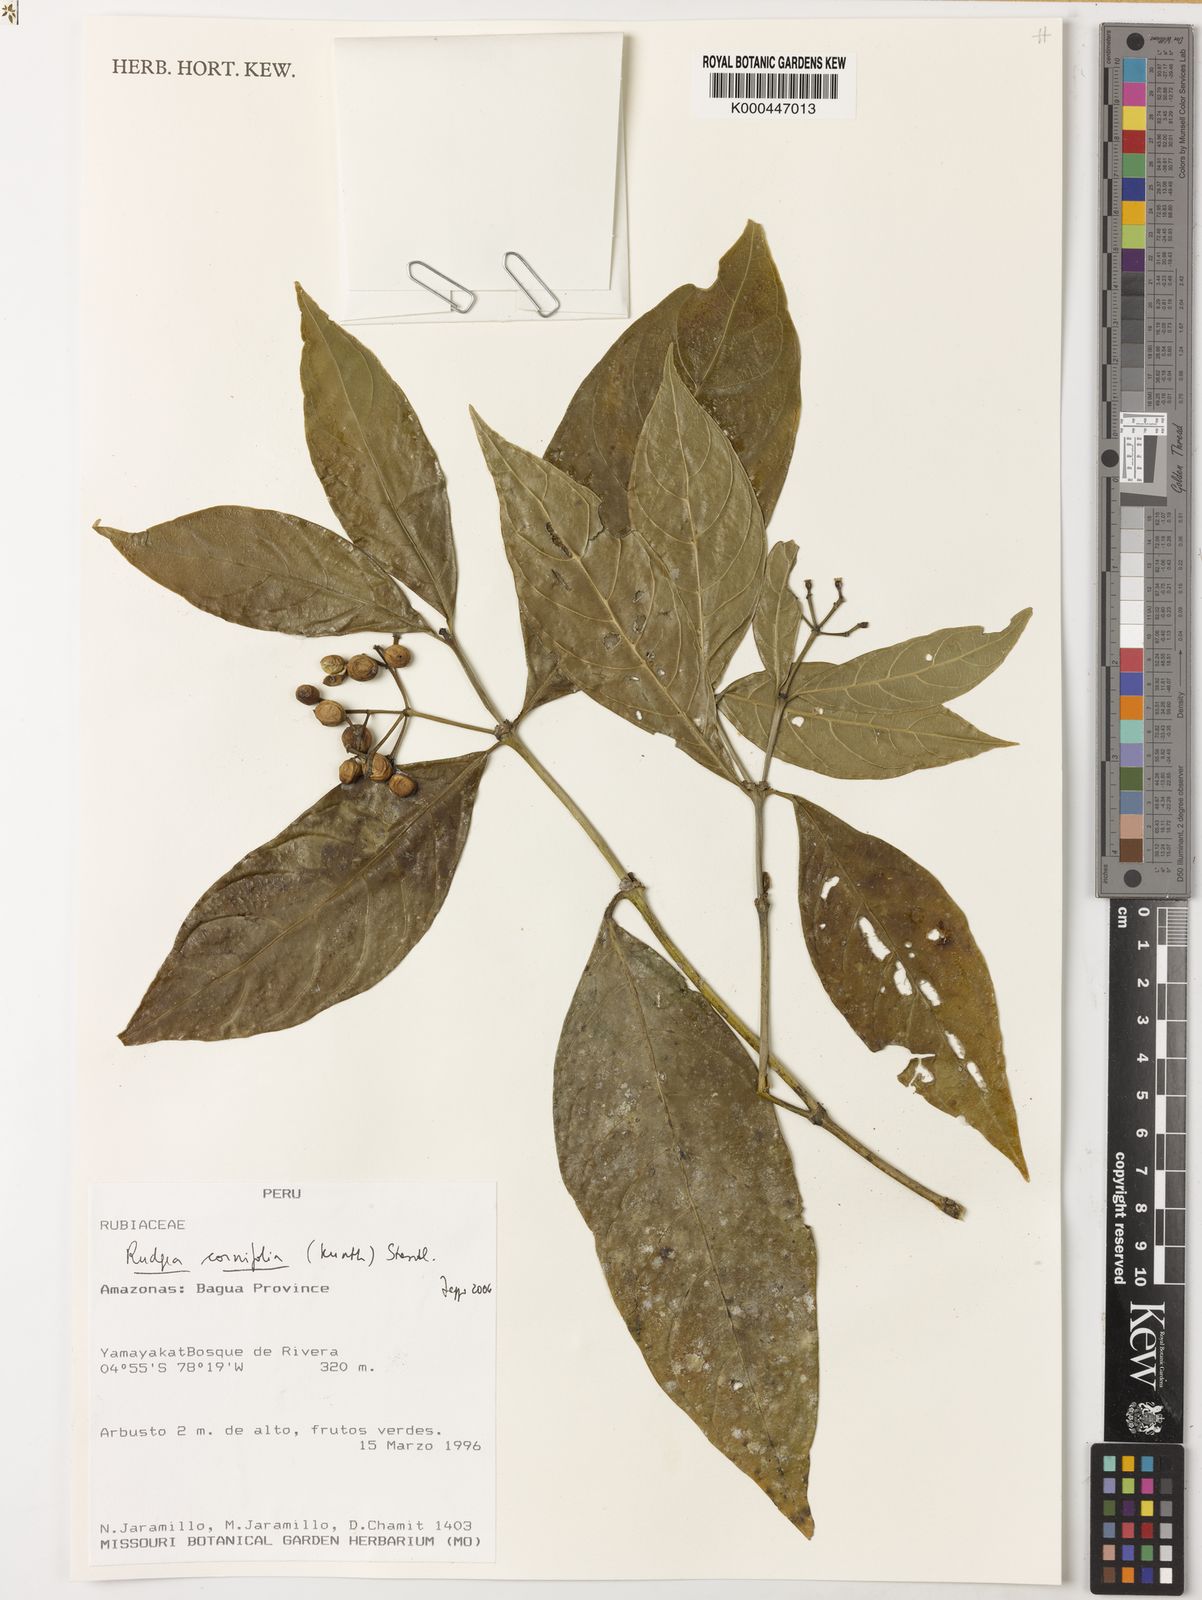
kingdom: Plantae
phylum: Tracheophyta
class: Magnoliopsida
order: Gentianales
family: Rubiaceae
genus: Rudgea
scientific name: Rudgea cornifolia
